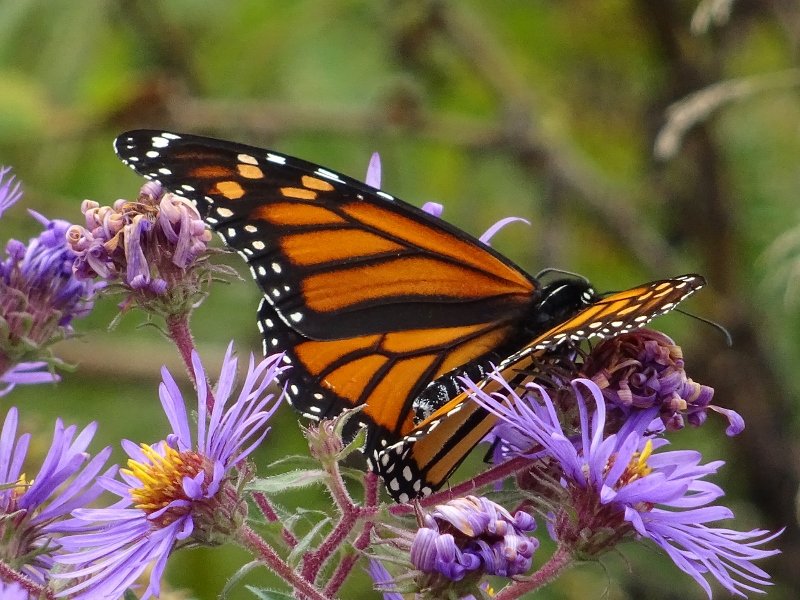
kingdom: Animalia
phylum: Arthropoda
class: Insecta
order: Lepidoptera
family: Nymphalidae
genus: Danaus
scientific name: Danaus plexippus
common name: Monarch
